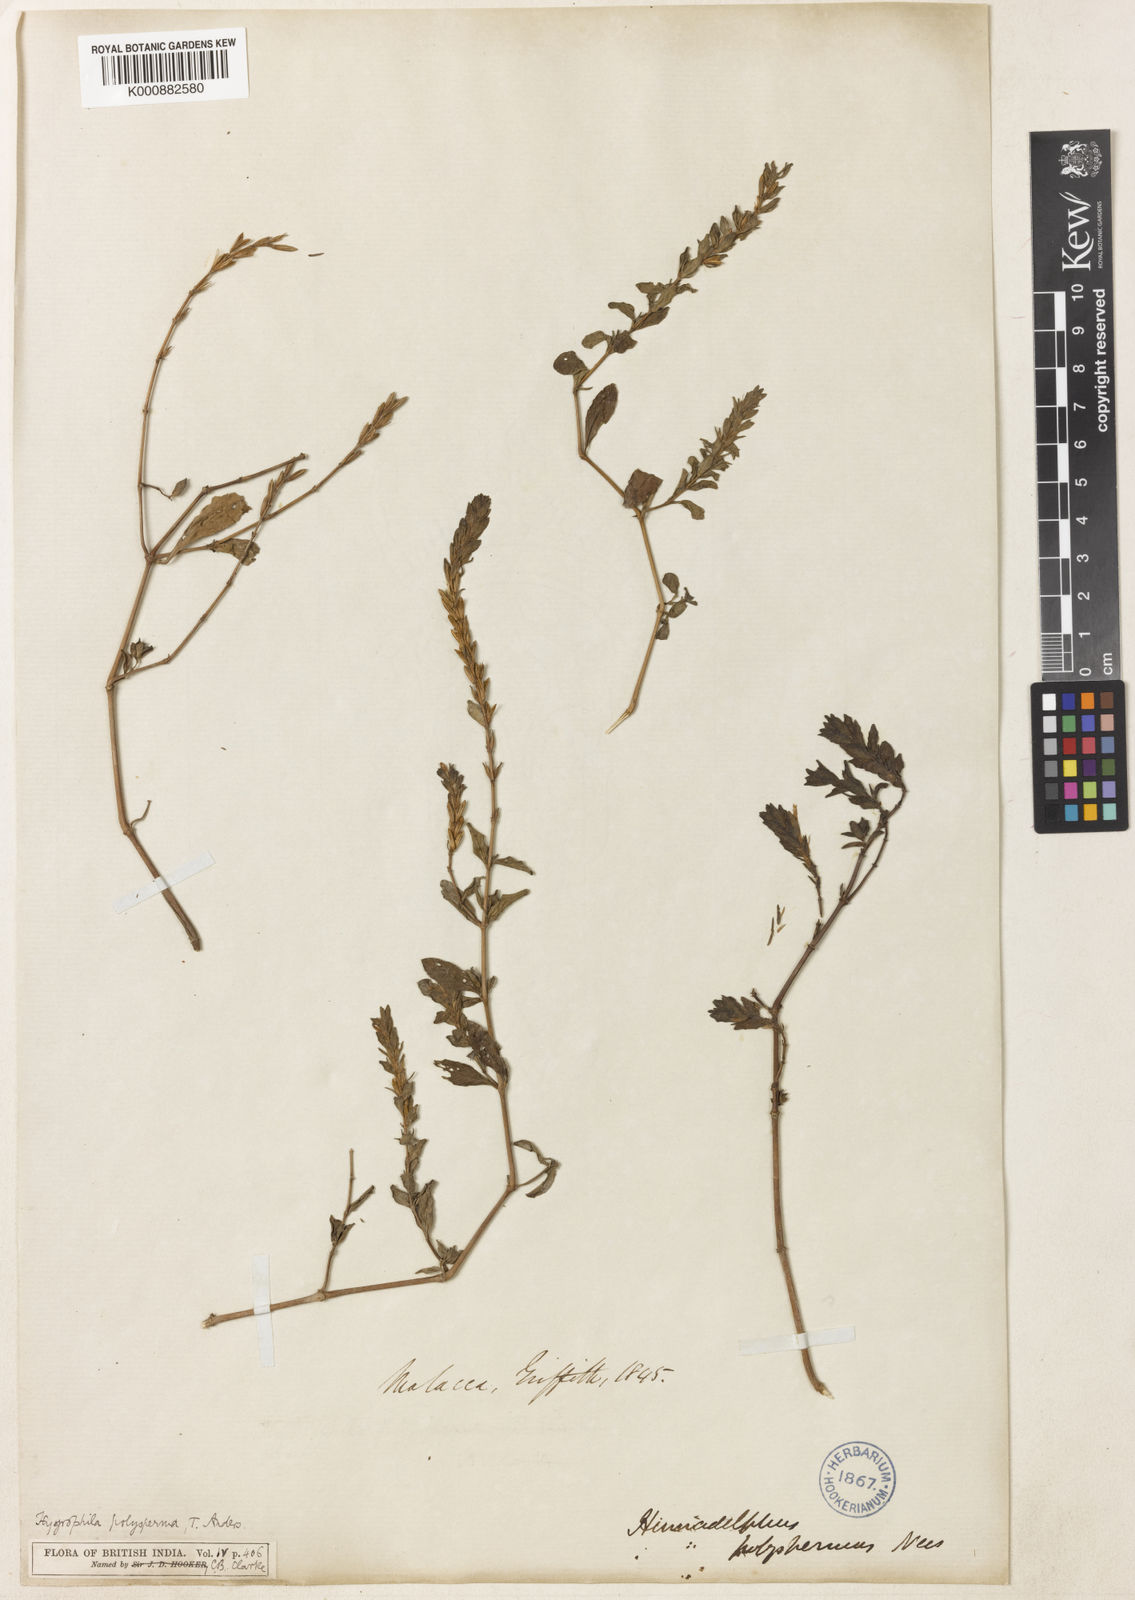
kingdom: Plantae
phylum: Tracheophyta
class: Magnoliopsida
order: Lamiales
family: Acanthaceae
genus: Hygrophila
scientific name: Hygrophila polysperma
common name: Indian swampweed
